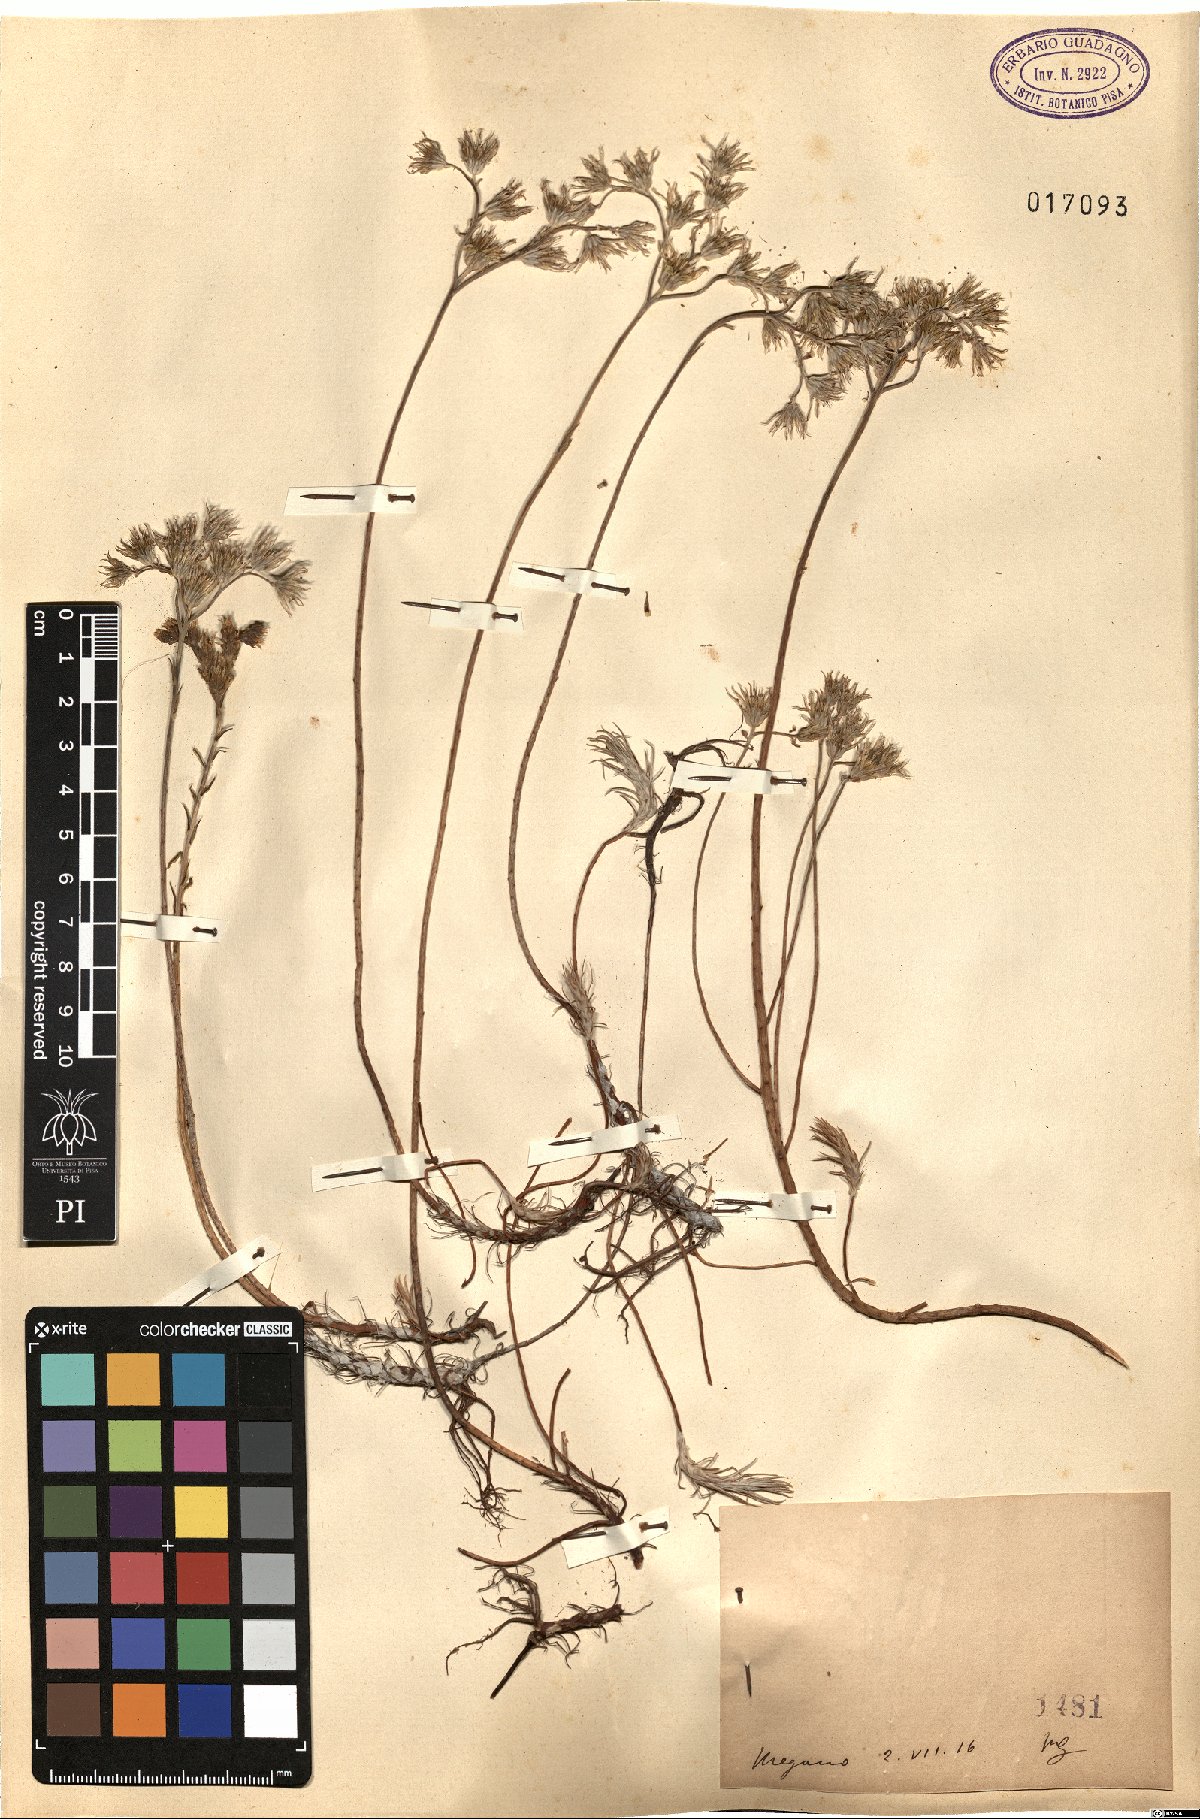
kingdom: Plantae
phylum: Tracheophyta
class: Magnoliopsida
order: Saxifragales
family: Crassulaceae
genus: Sedum
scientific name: Sedum
